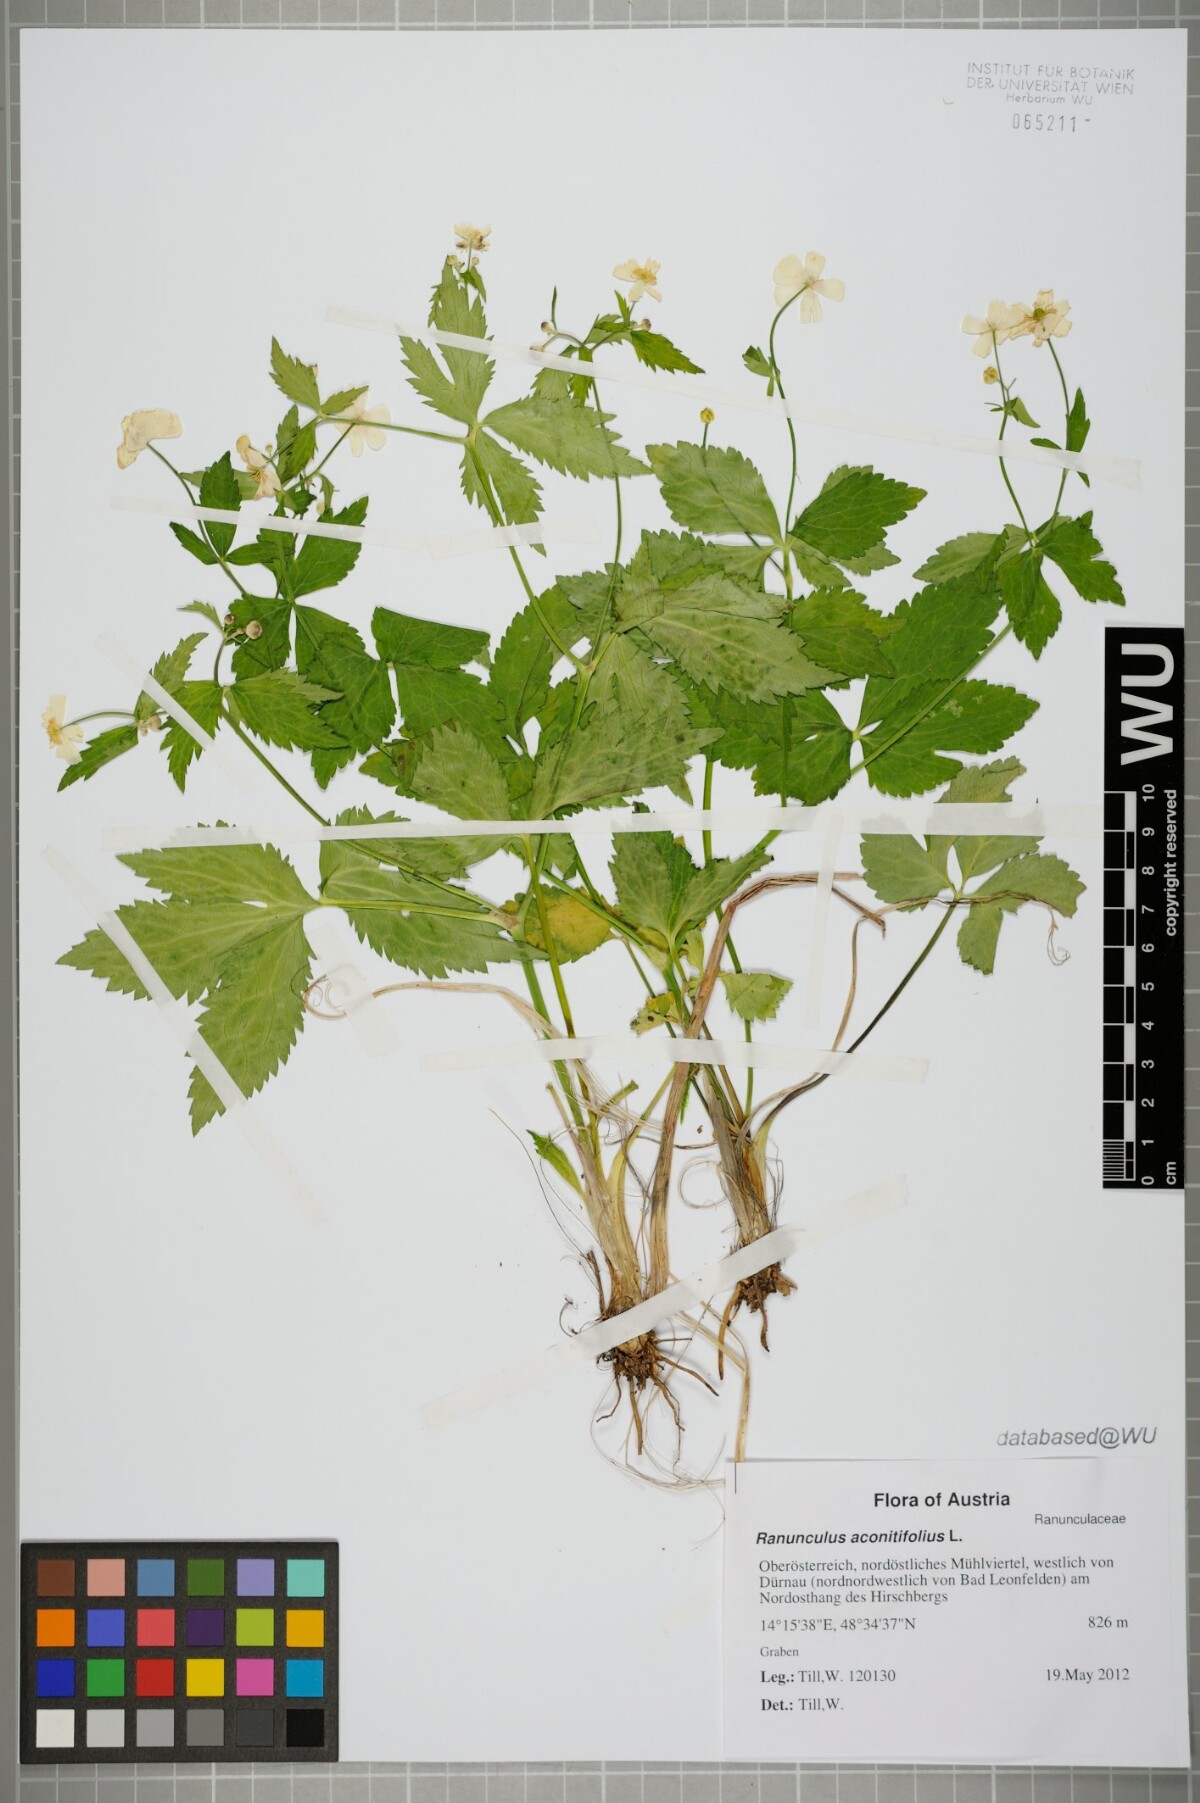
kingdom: Plantae
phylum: Tracheophyta
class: Magnoliopsida
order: Ranunculales
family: Ranunculaceae
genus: Ranunculus
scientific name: Ranunculus aconitifolius
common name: Aconite-leaved buttercup
